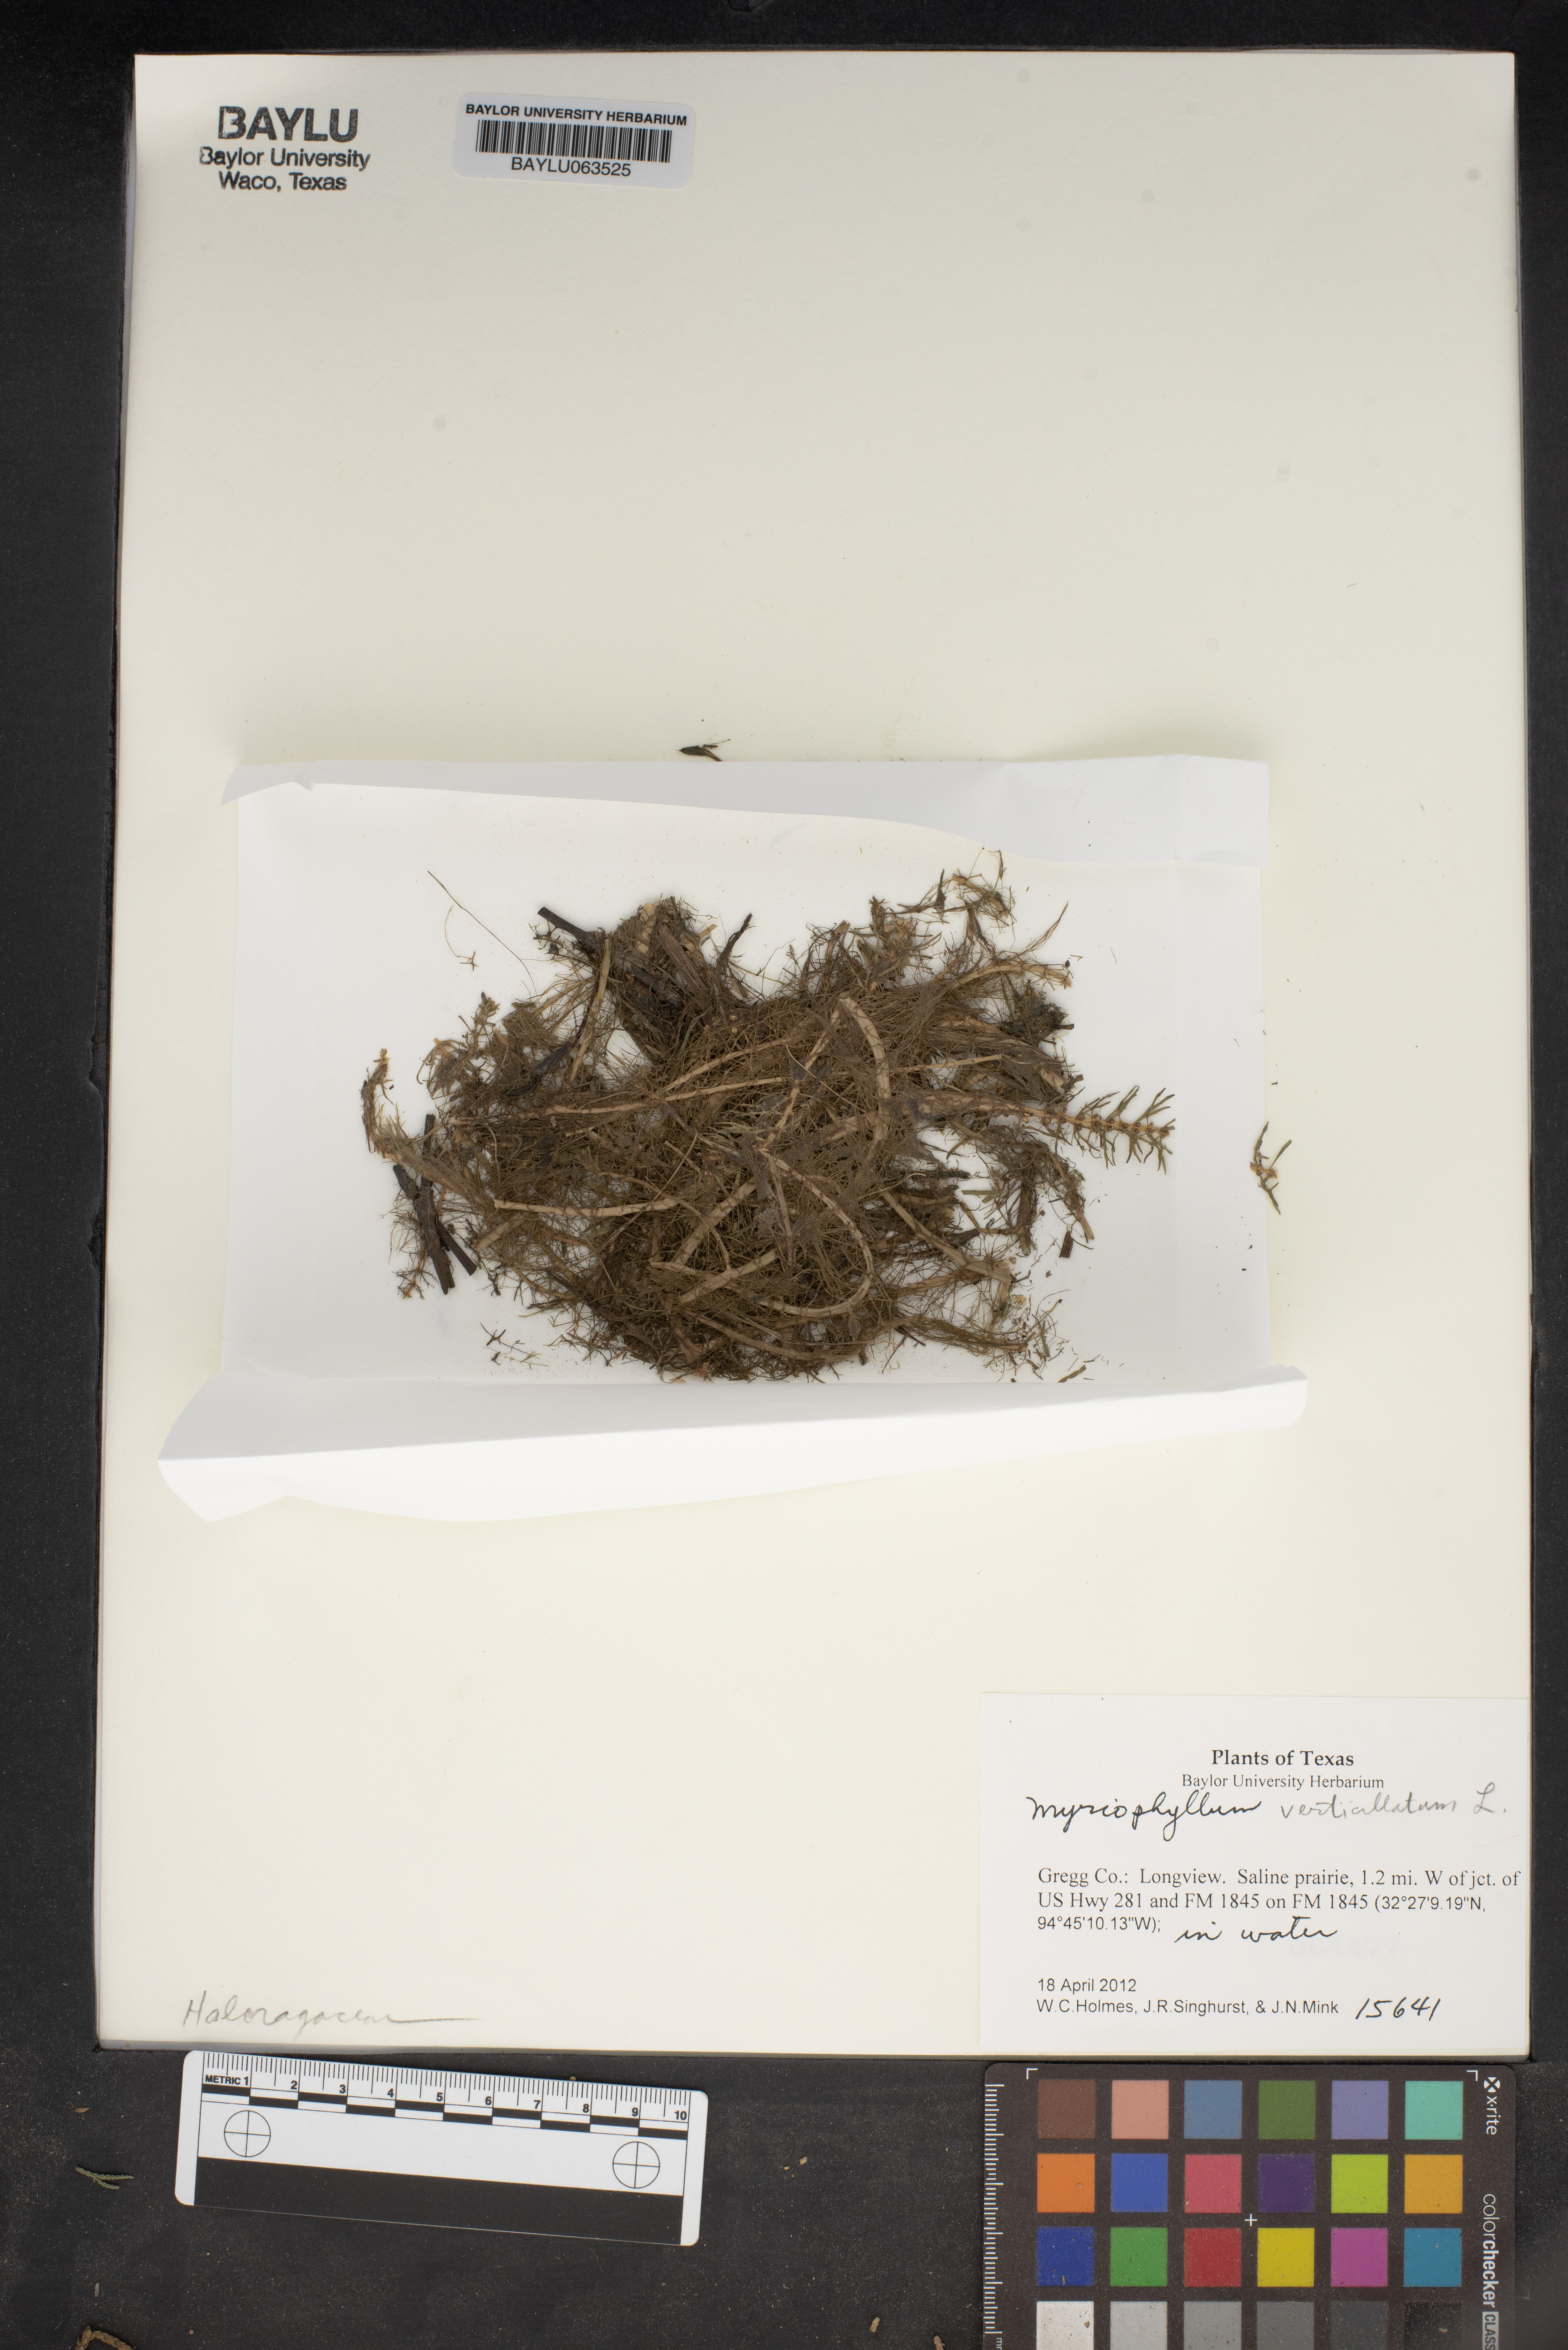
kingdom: Plantae
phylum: Tracheophyta
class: Magnoliopsida
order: Saxifragales
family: Haloragaceae
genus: Myriophyllum
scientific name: Myriophyllum verticillatum
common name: Whorled water-milfoil
